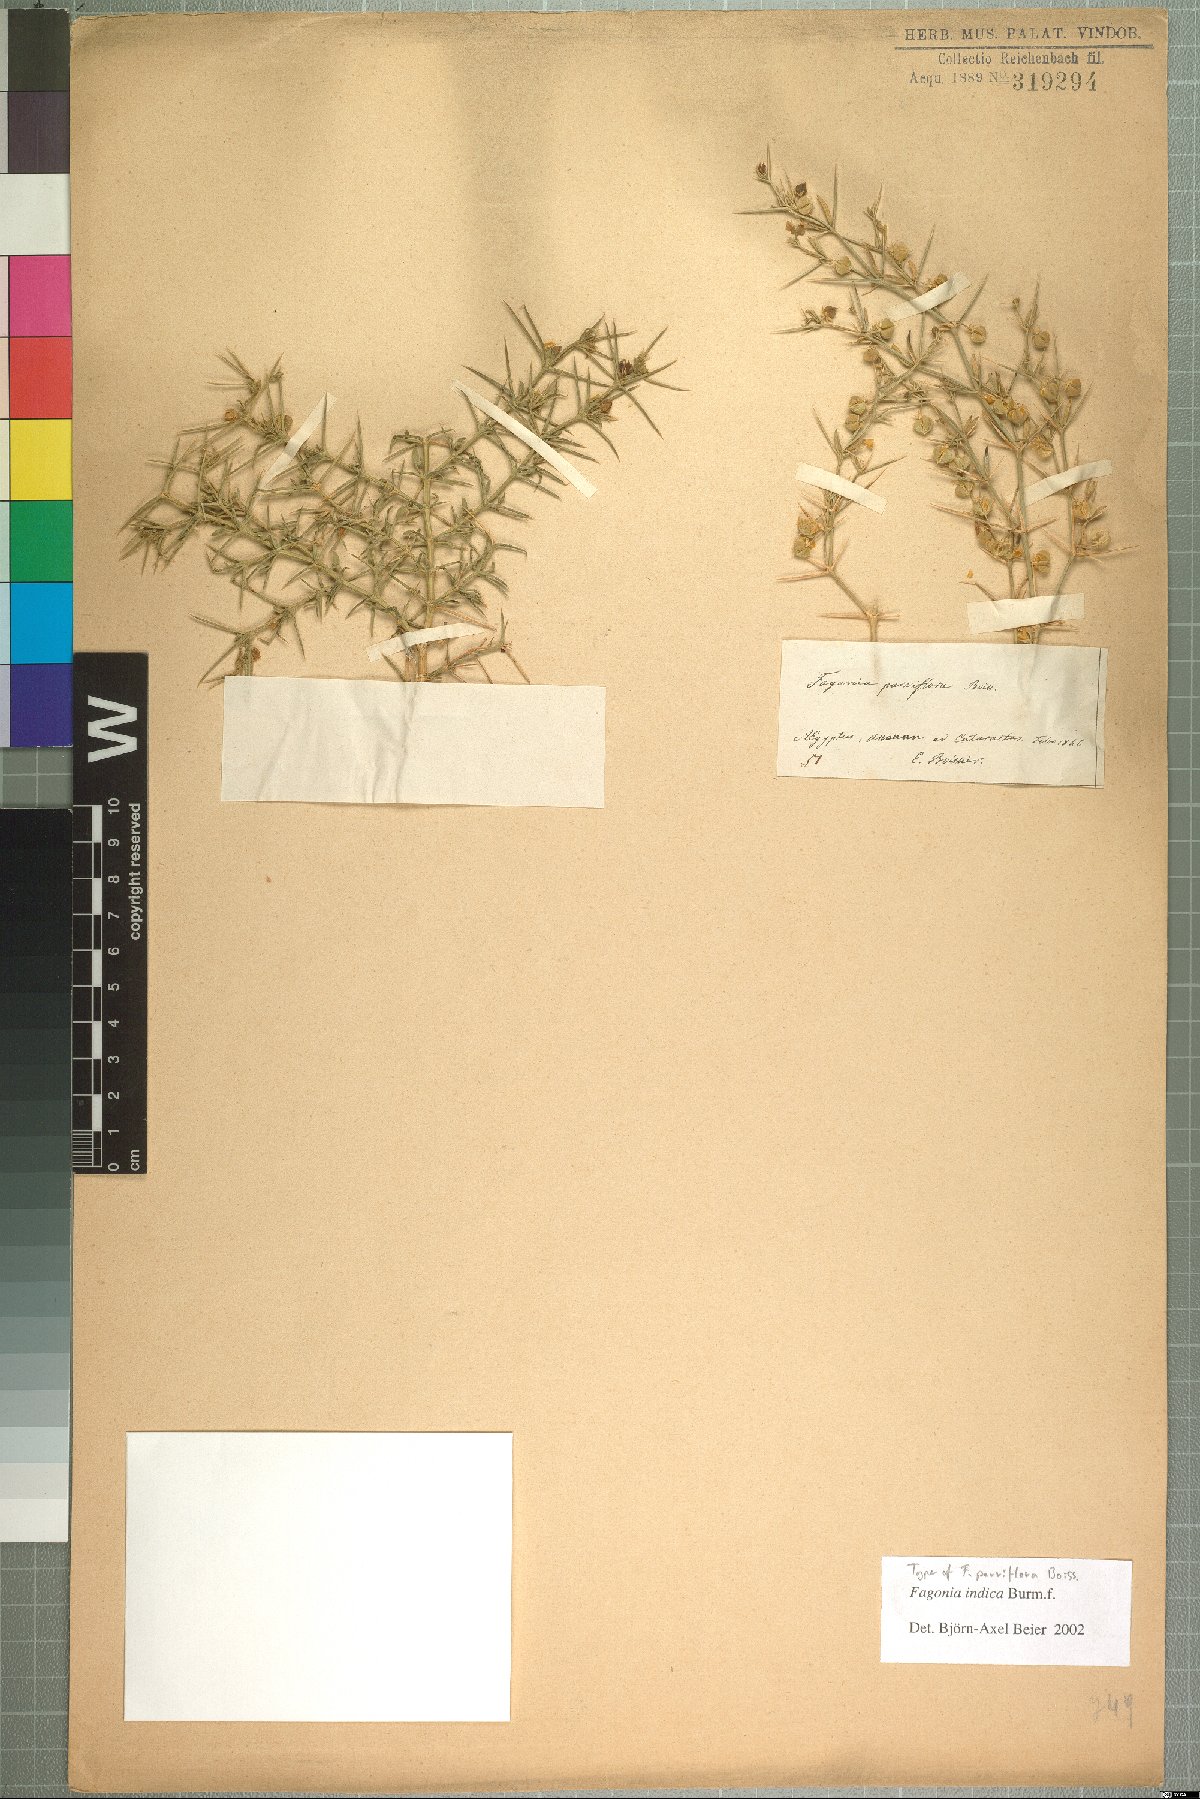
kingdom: Plantae
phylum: Tracheophyta
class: Magnoliopsida
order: Zygophyllales
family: Zygophyllaceae
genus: Fagonia
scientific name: Fagonia indica
